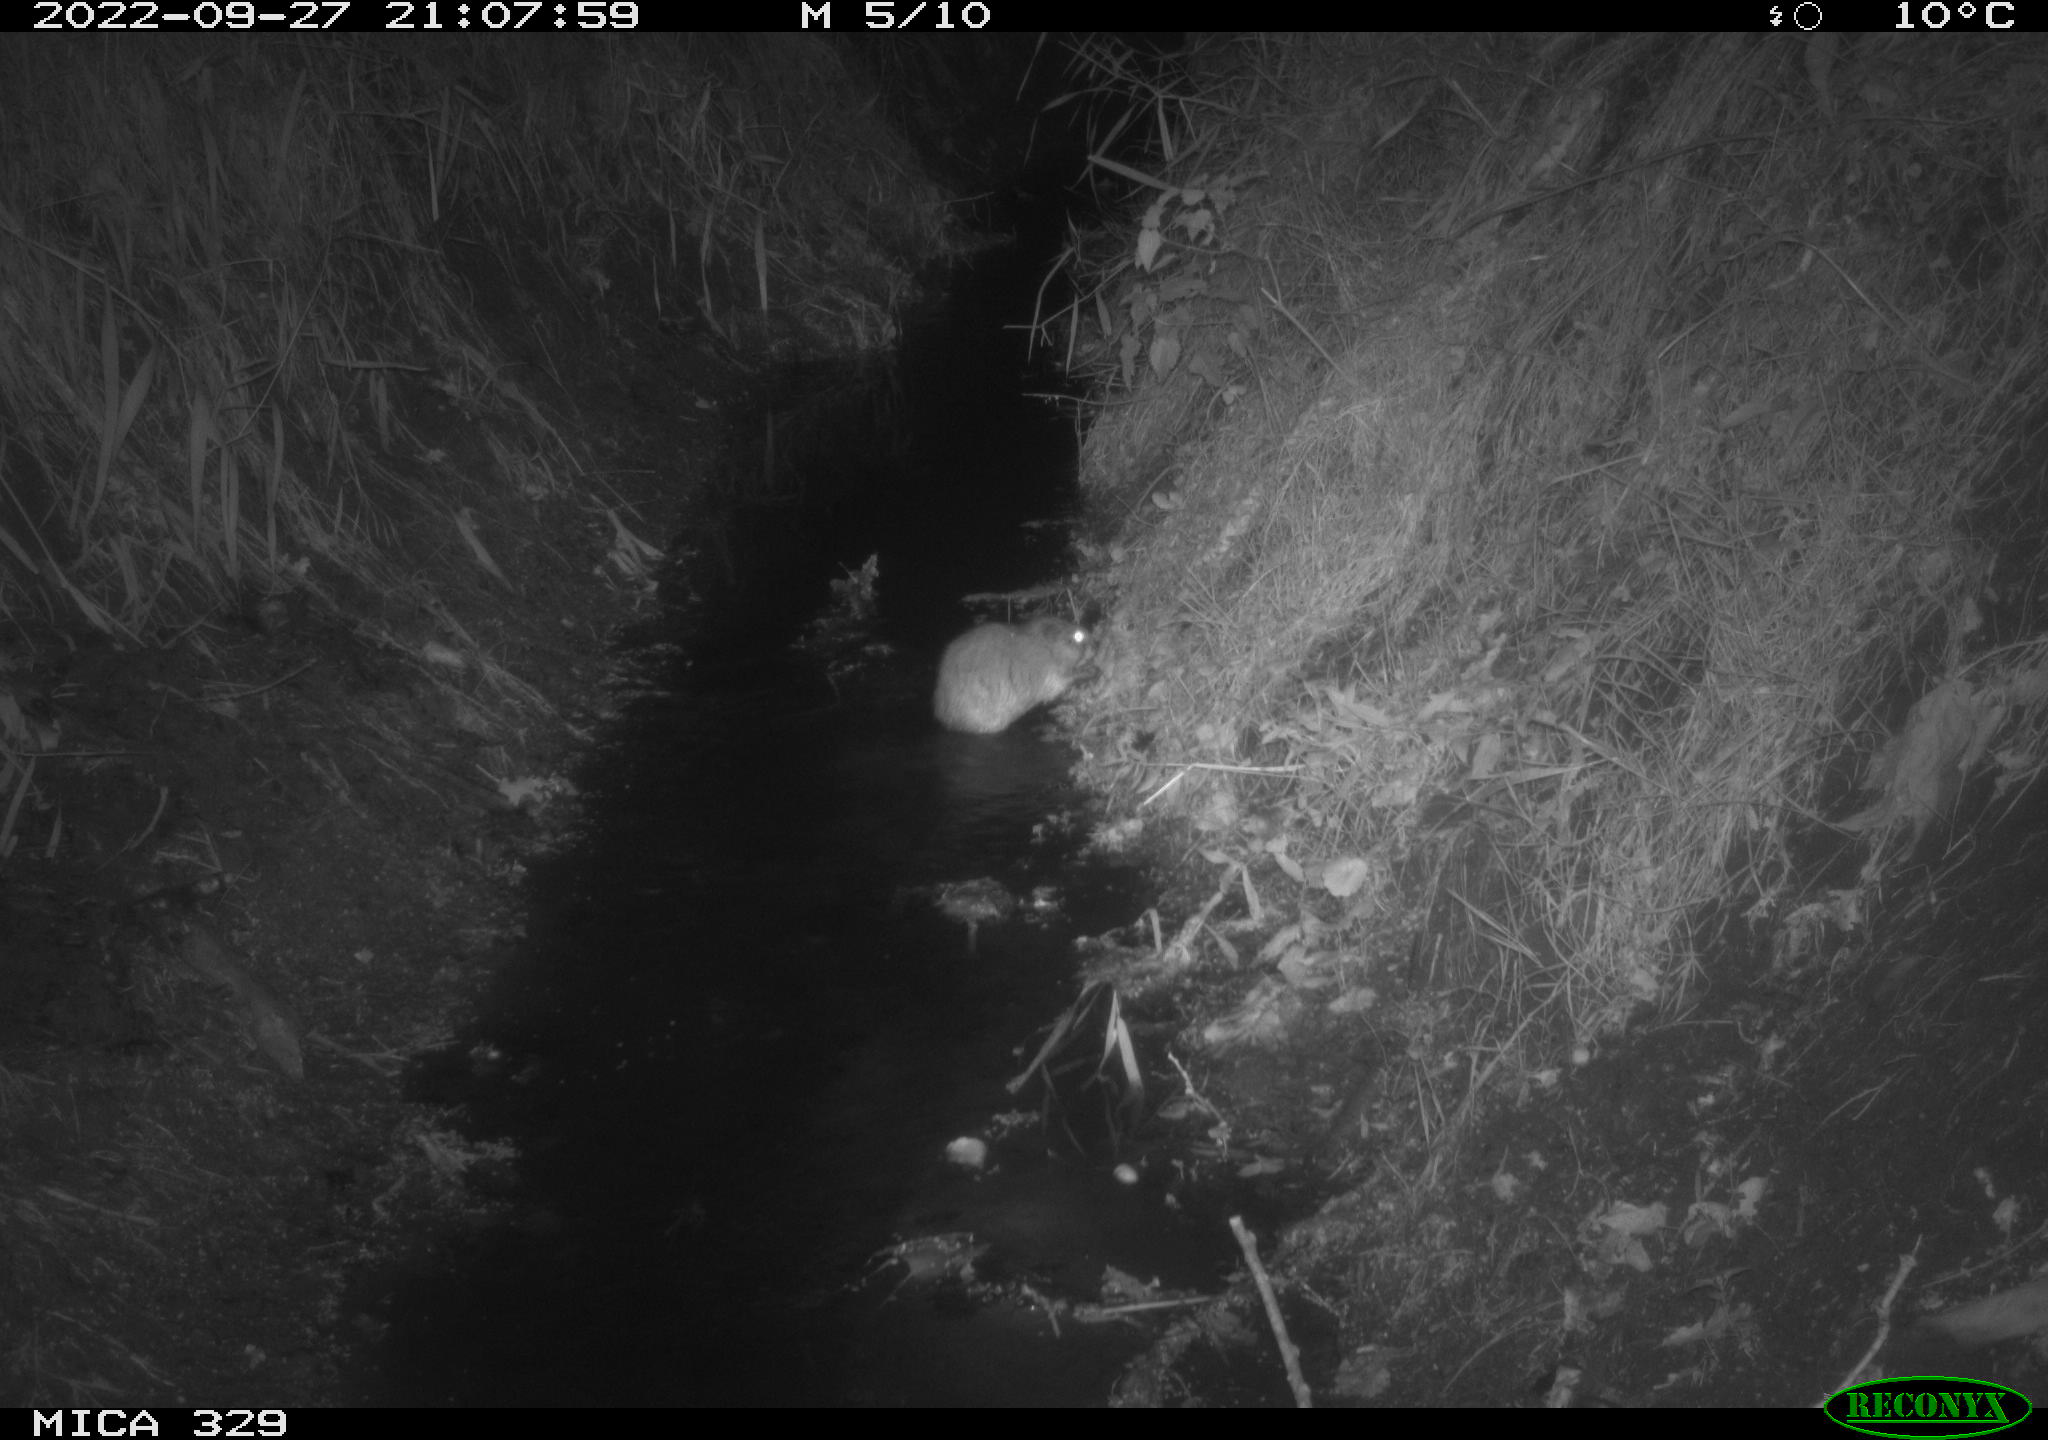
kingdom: Animalia
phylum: Chordata
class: Mammalia
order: Rodentia
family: Cricetidae
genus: Ondatra
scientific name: Ondatra zibethicus
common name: Muskrat
